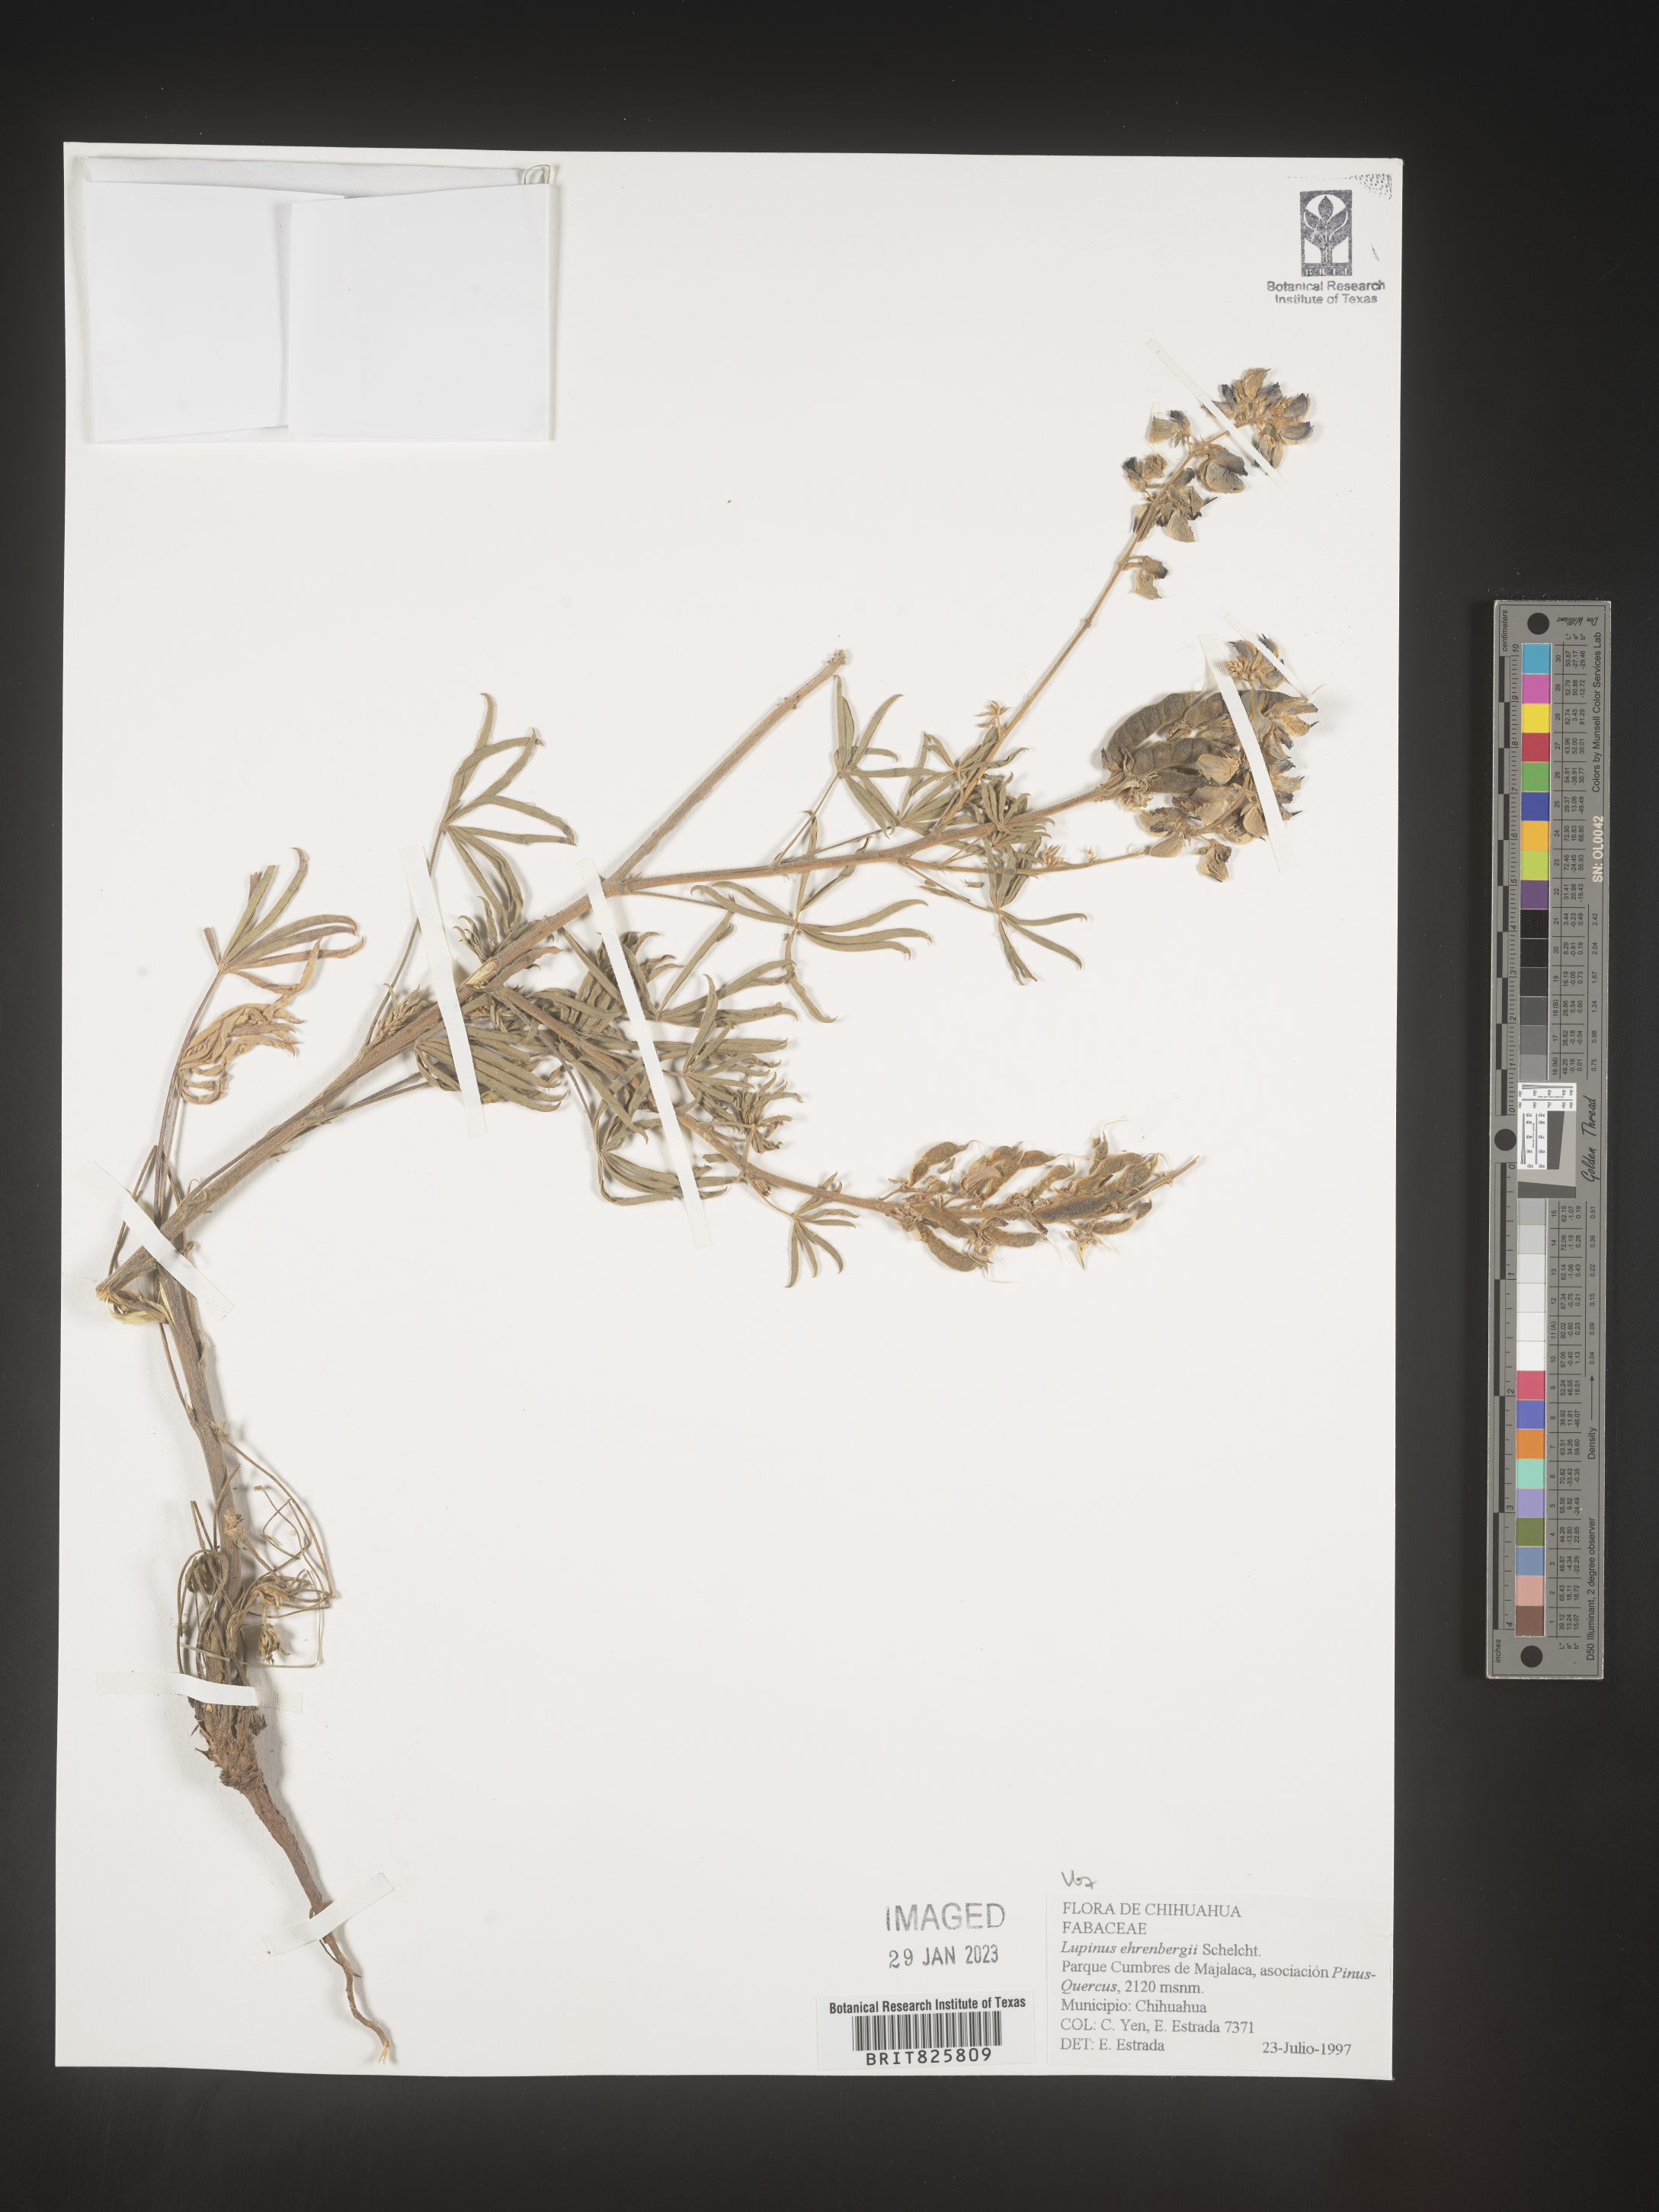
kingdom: Plantae
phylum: Tracheophyta
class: Magnoliopsida
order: Fabales
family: Fabaceae
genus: Lupinus
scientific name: Lupinus
